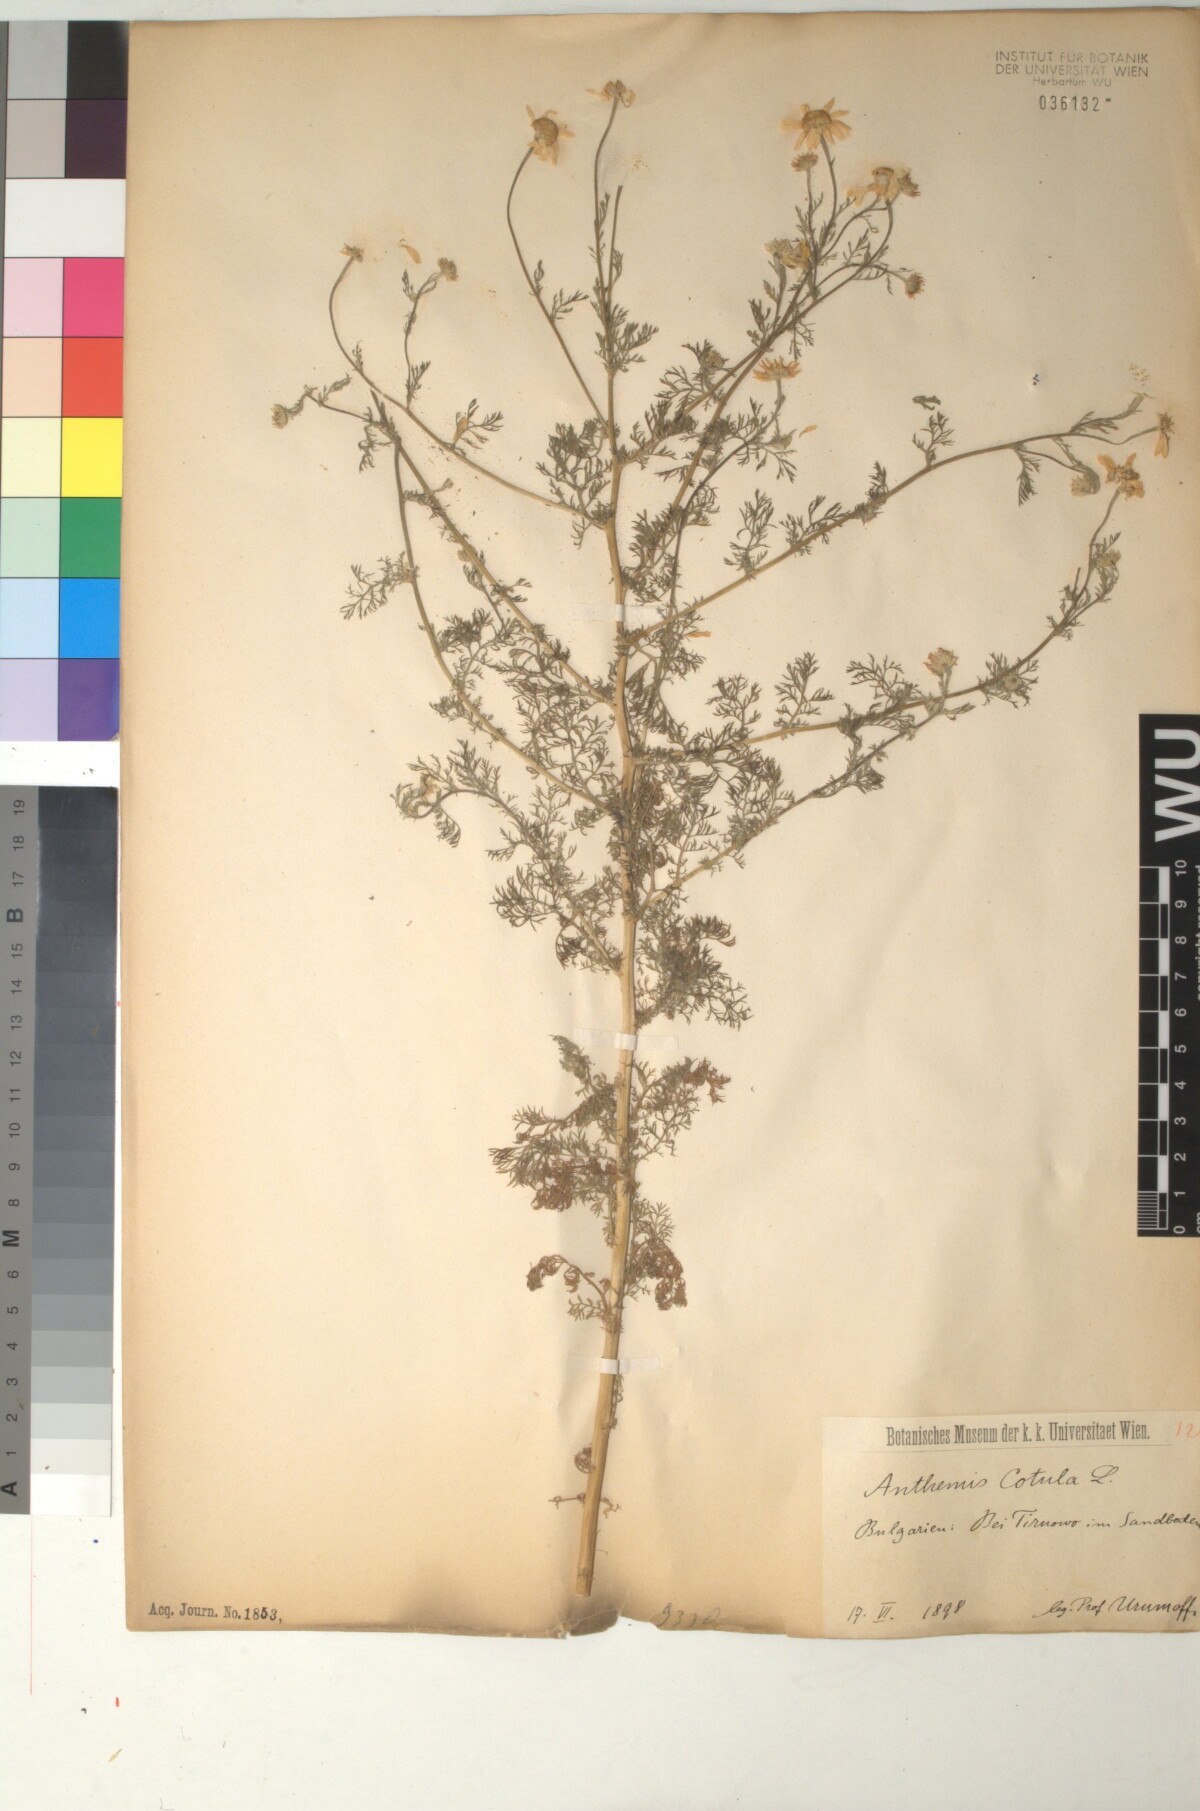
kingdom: Plantae
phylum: Tracheophyta
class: Magnoliopsida
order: Asterales
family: Asteraceae
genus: Anthemis
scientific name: Anthemis cotula
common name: Stinking chamomile
